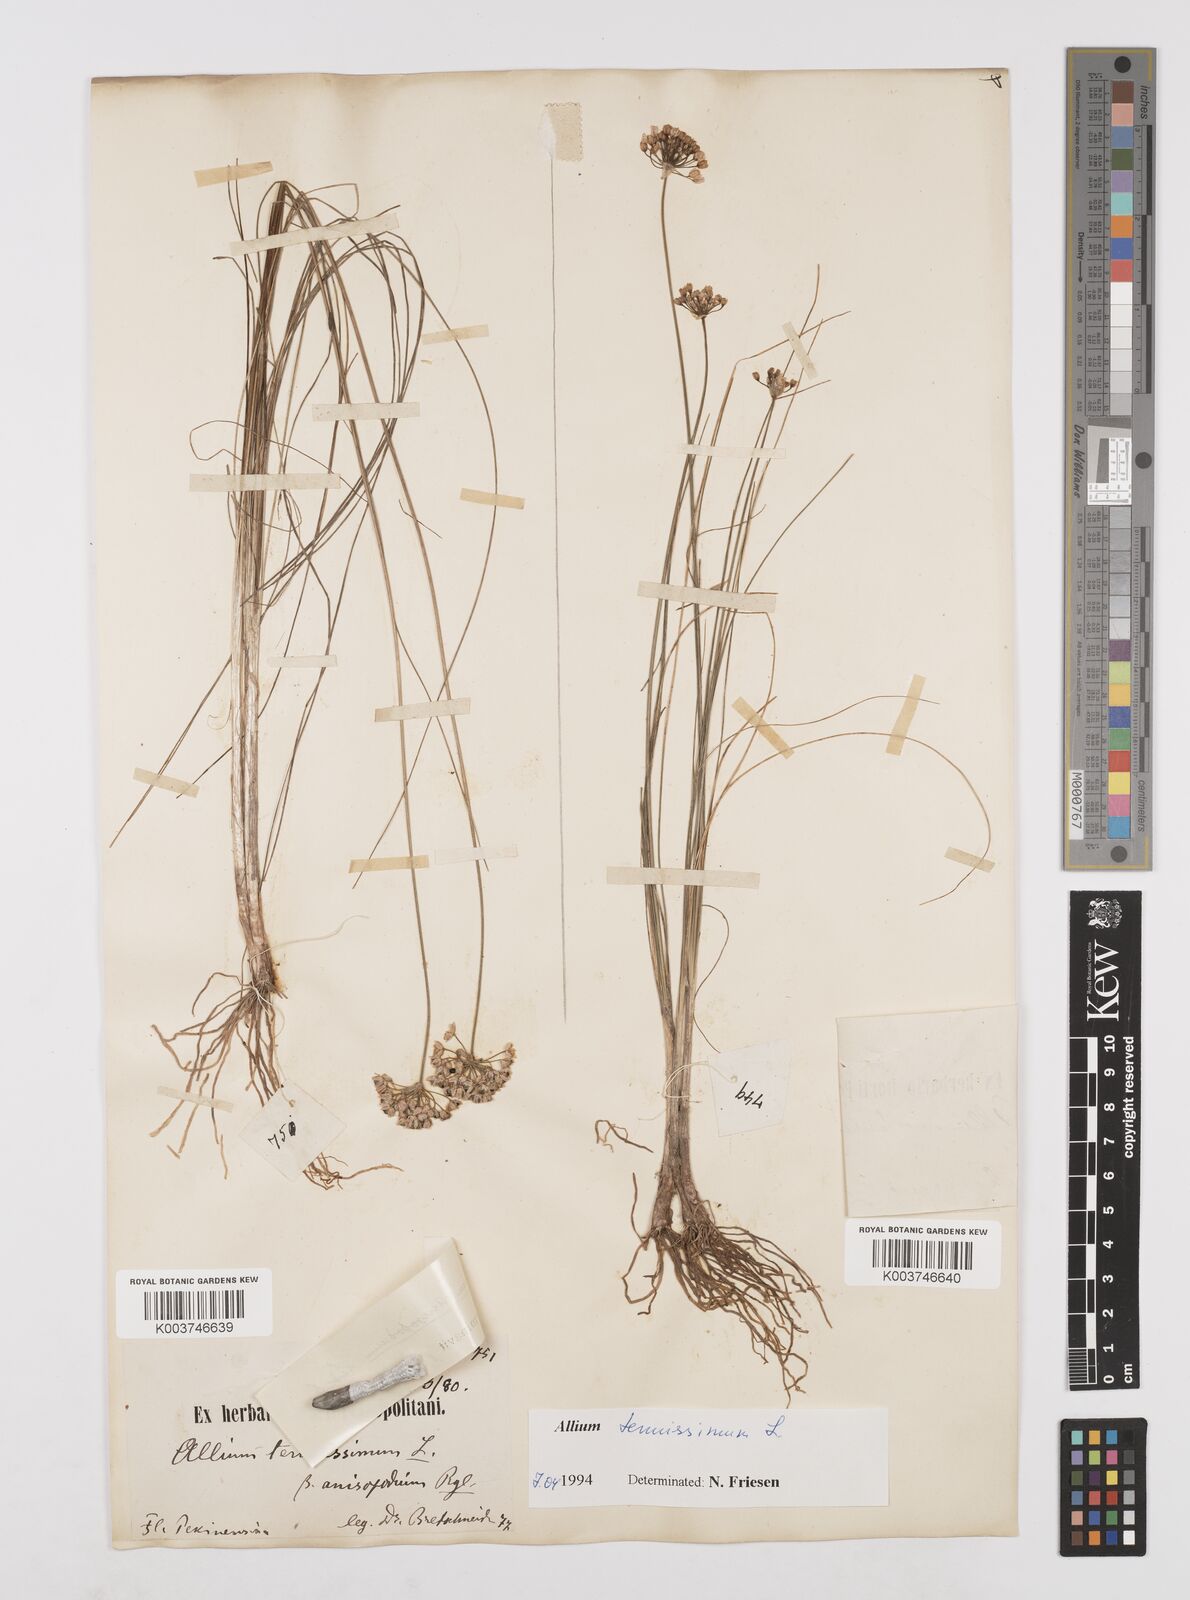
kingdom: Plantae
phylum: Tracheophyta
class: Liliopsida
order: Asparagales
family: Amaryllidaceae
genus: Allium
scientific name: Allium tenuissimum
